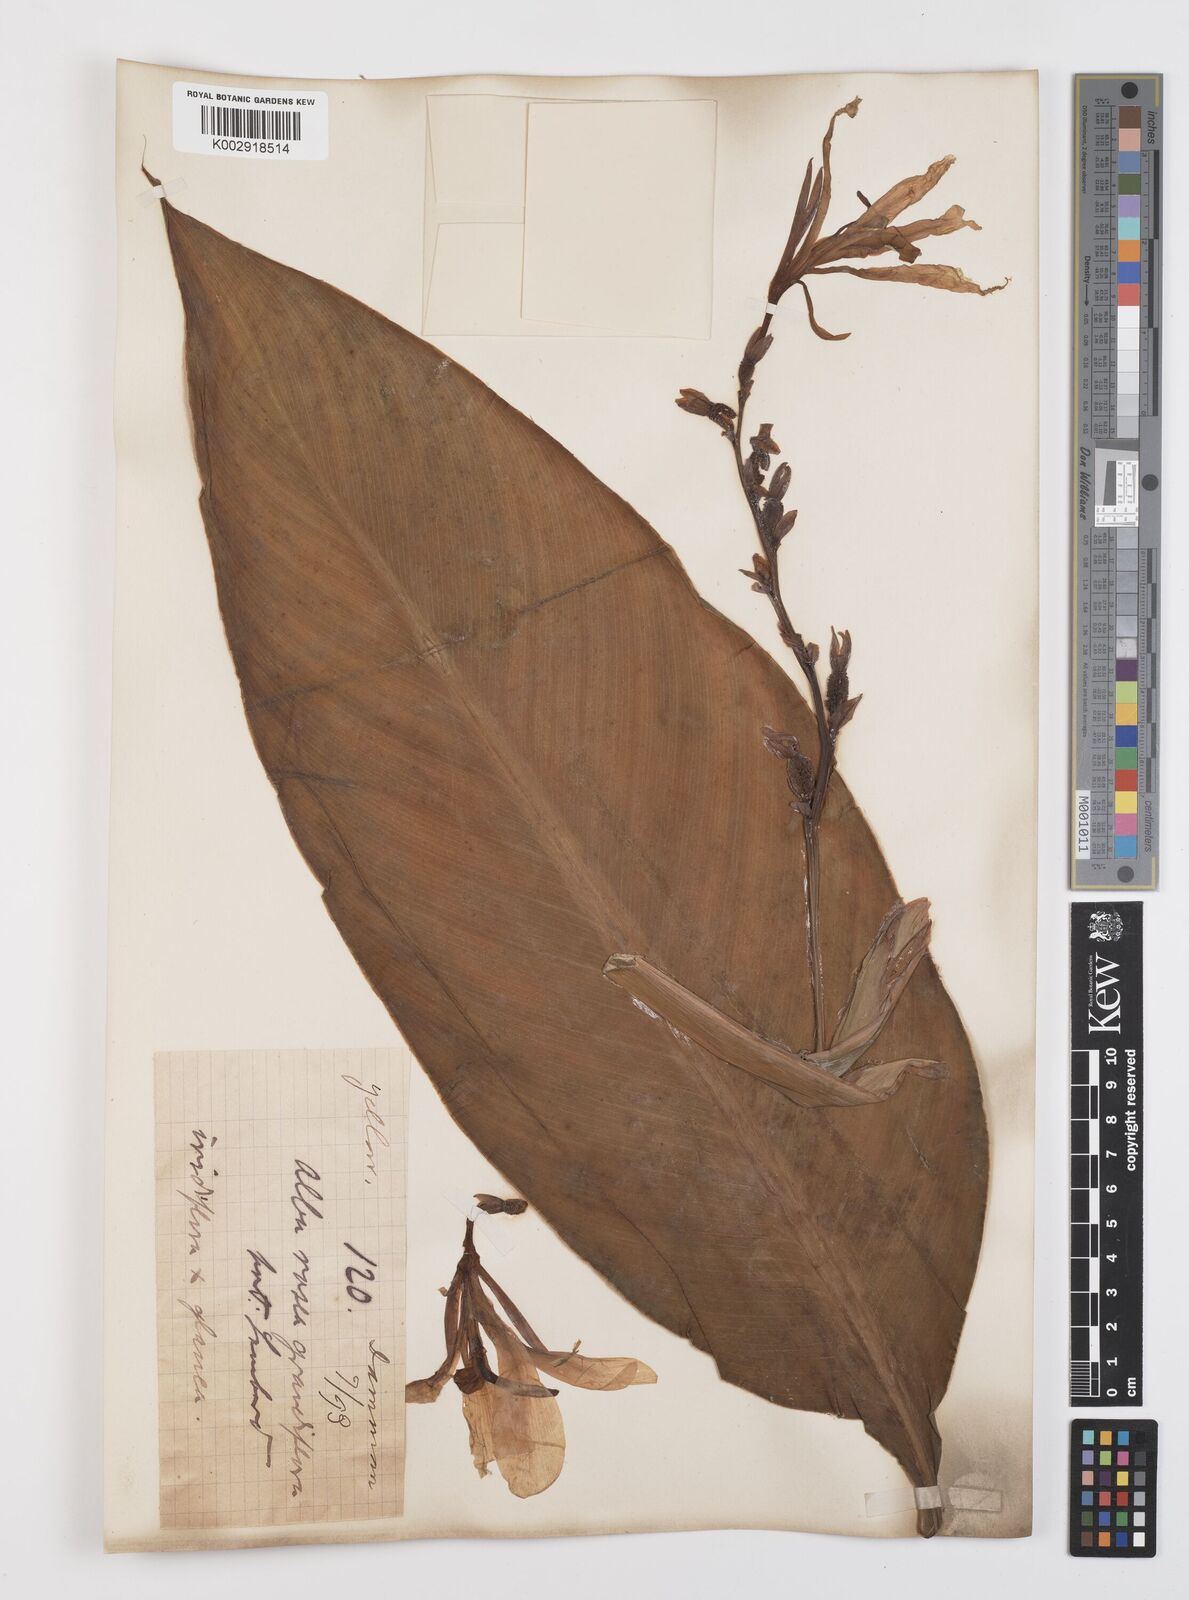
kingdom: Plantae
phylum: Tracheophyta
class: Liliopsida
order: Zingiberales
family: Cannaceae
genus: Canna
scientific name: Canna
